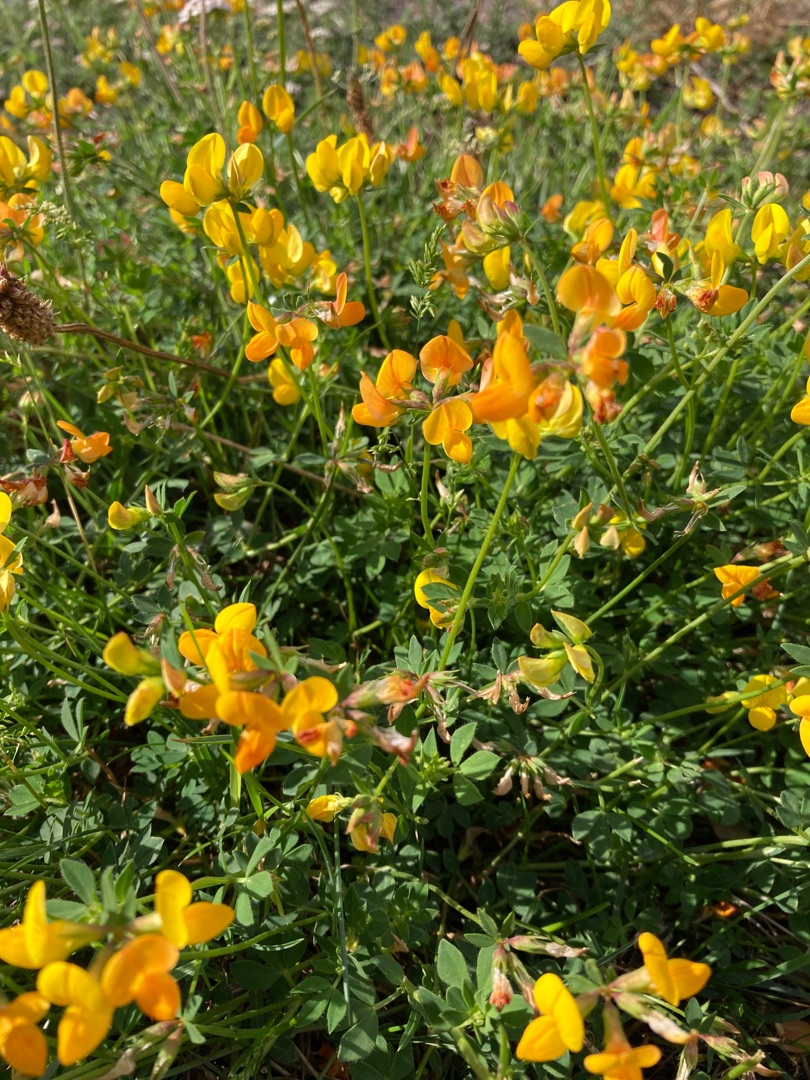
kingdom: Plantae
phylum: Tracheophyta
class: Magnoliopsida
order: Fabales
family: Fabaceae
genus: Lotus
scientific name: Lotus corniculatus
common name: Almindelig kællingetand
